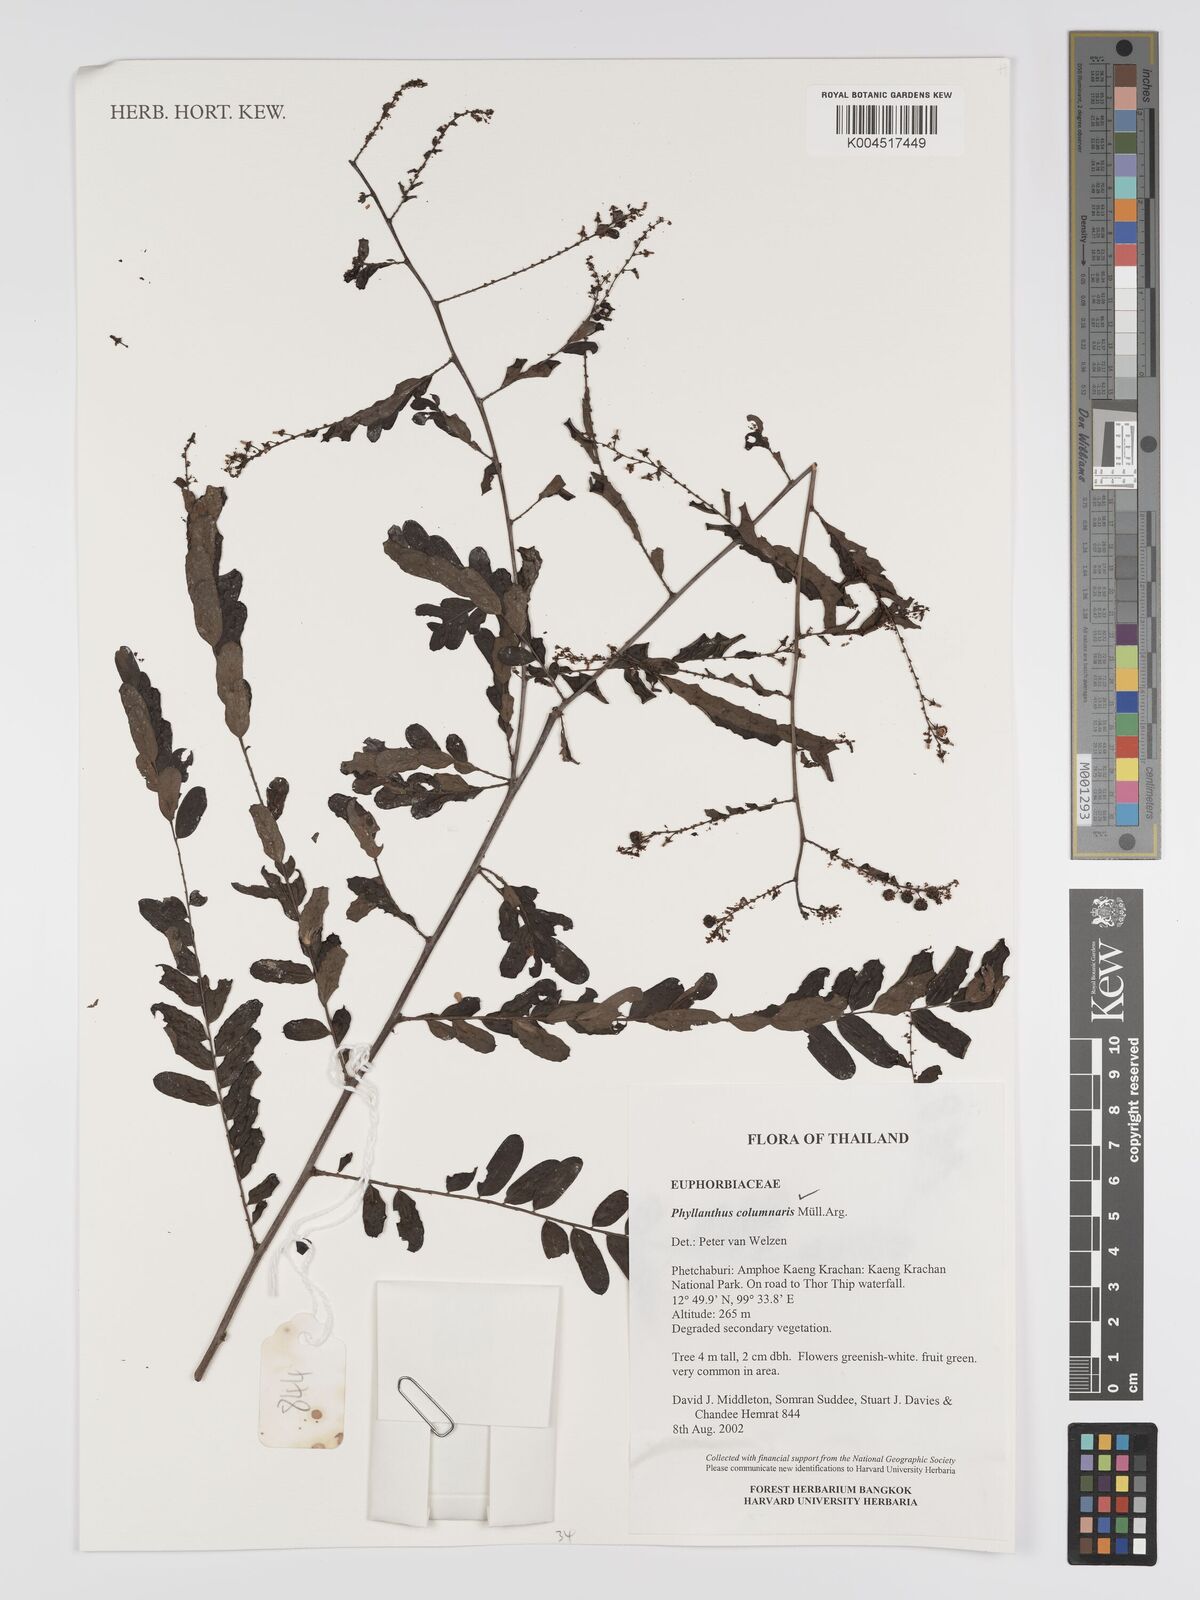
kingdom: Plantae
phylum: Tracheophyta
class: Magnoliopsida
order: Malpighiales
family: Phyllanthaceae
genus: Phyllanthus
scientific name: Phyllanthus
